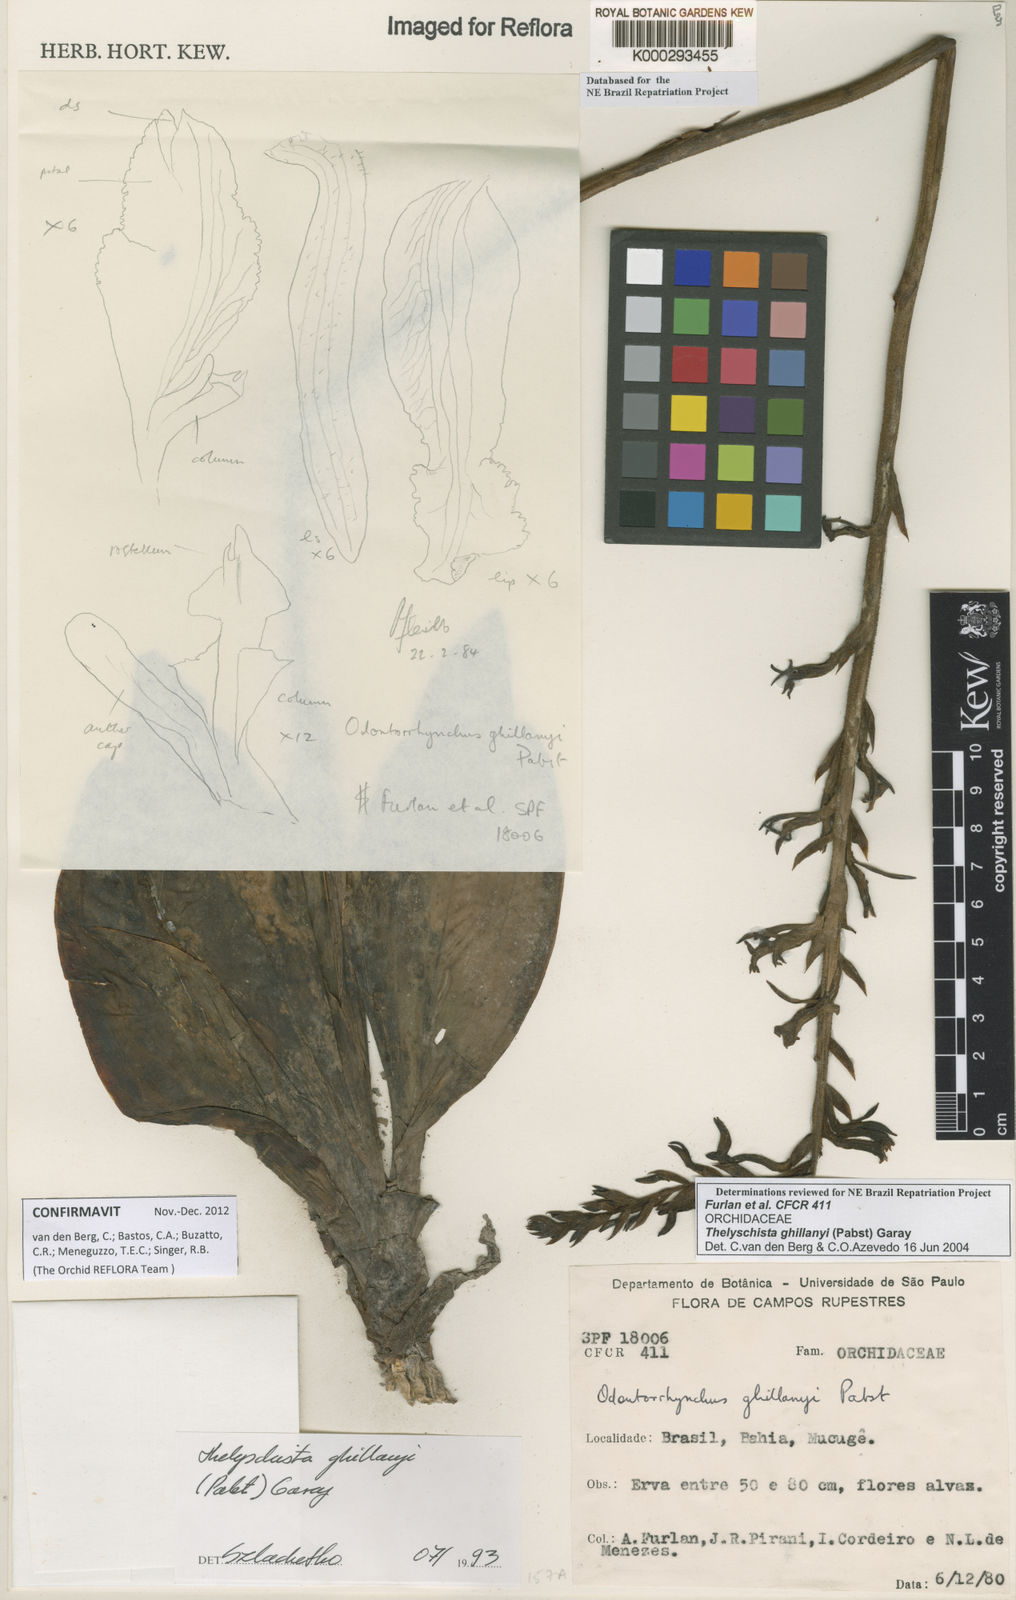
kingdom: Plantae
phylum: Tracheophyta
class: Liliopsida
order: Asparagales
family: Orchidaceae
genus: Thelyschista
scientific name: Thelyschista ghillanyi
